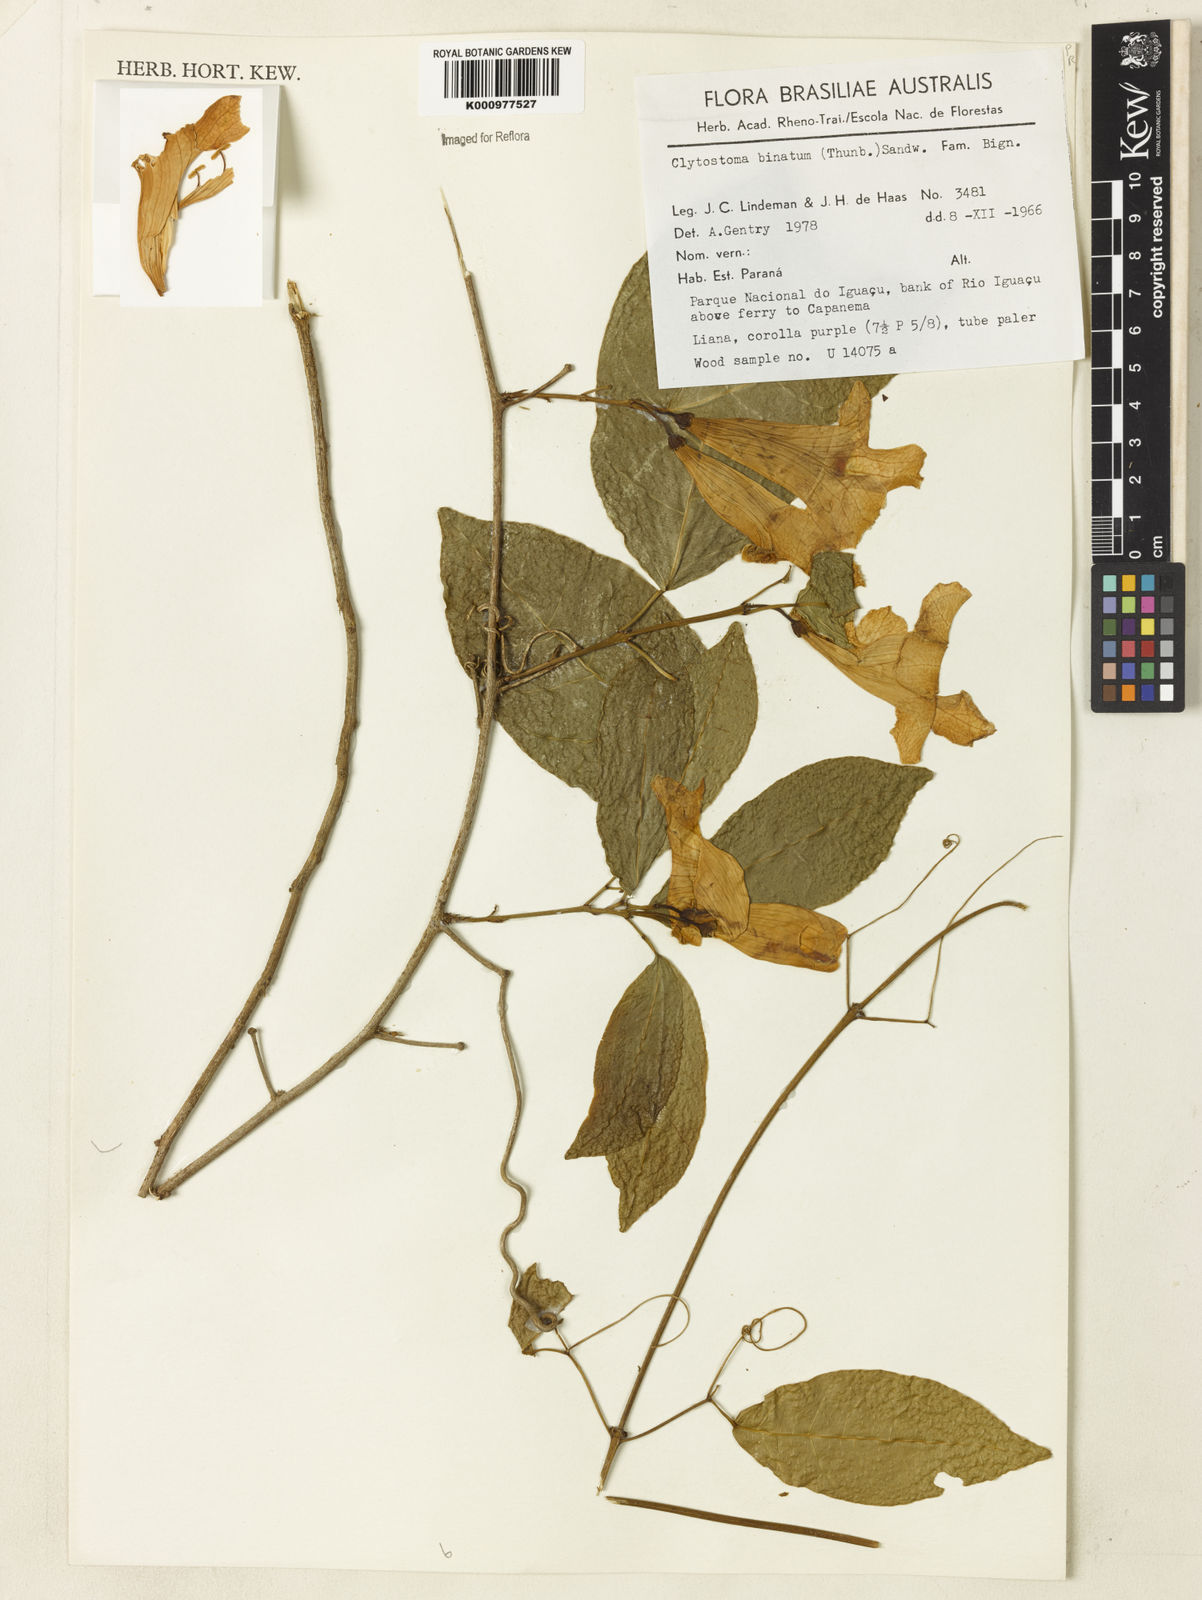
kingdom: Plantae
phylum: Tracheophyta
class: Magnoliopsida
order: Lamiales
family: Bignoniaceae
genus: Bignonia
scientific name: Bignonia binata
